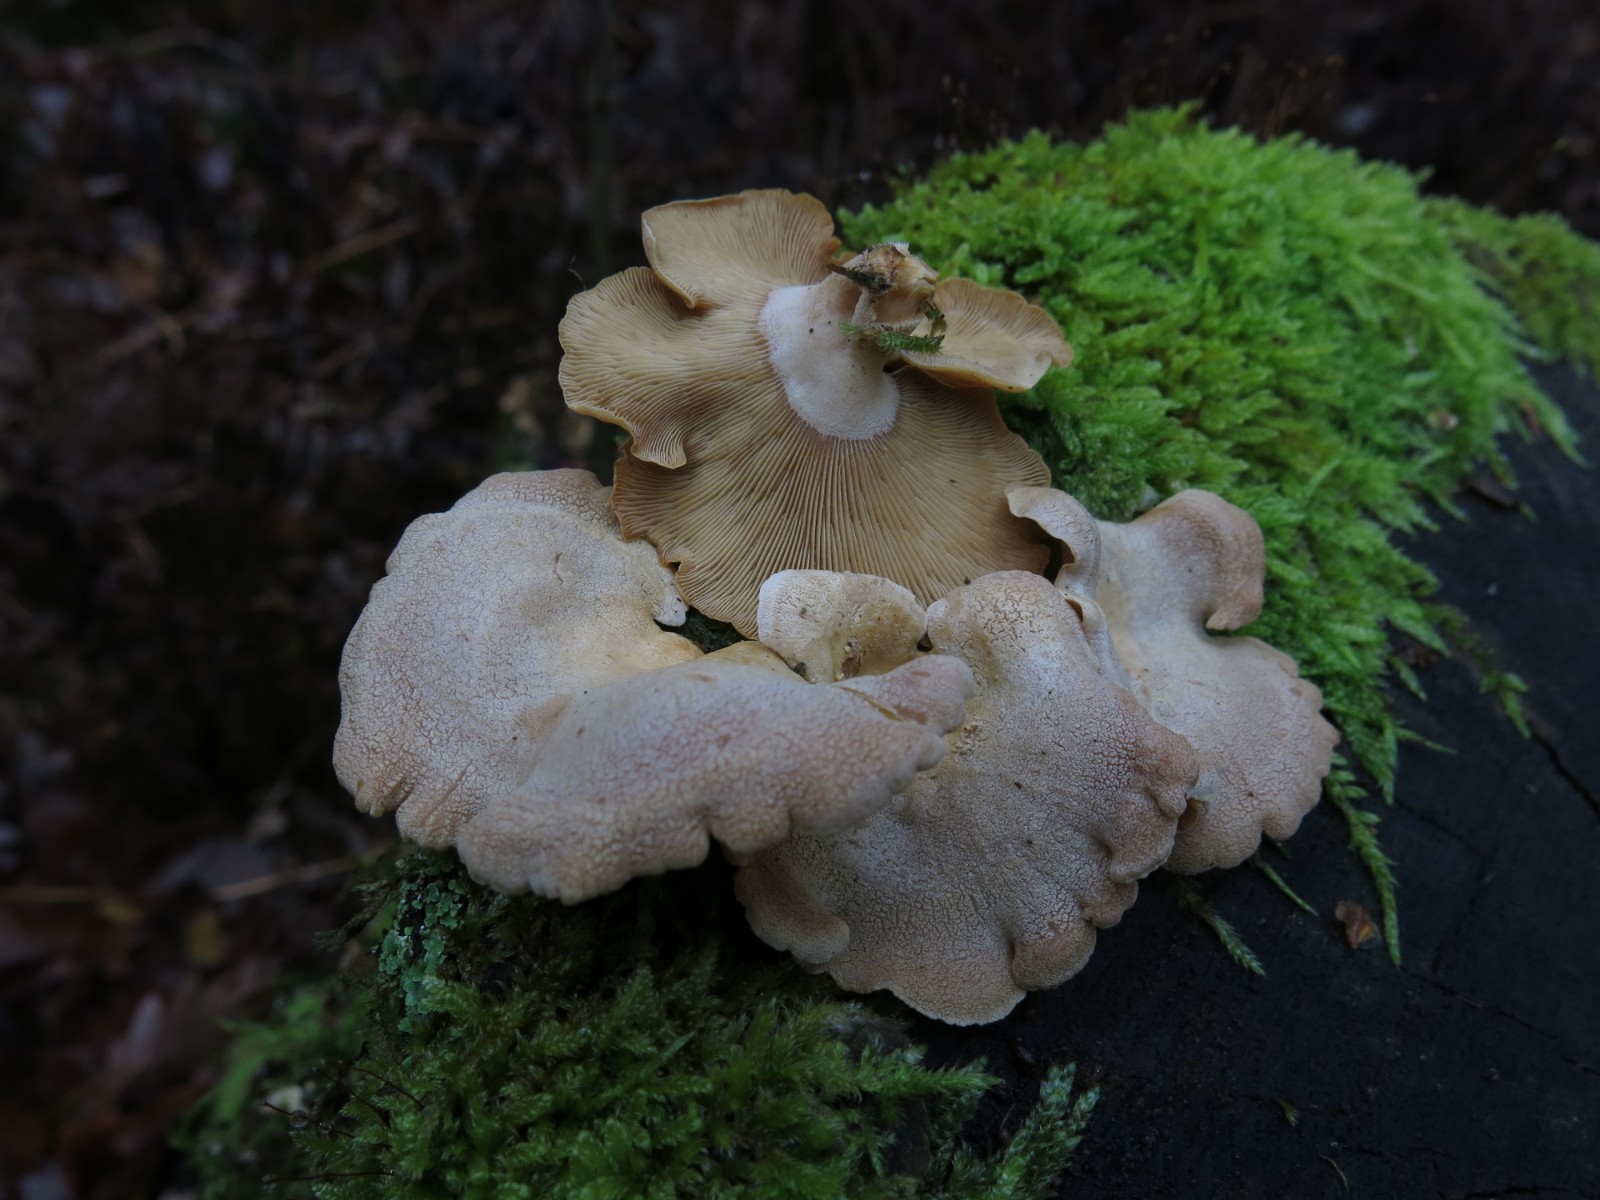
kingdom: Fungi
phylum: Basidiomycota
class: Agaricomycetes
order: Agaricales
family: Mycenaceae
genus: Panellus
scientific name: Panellus stipticus
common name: kliddet epaulethat
